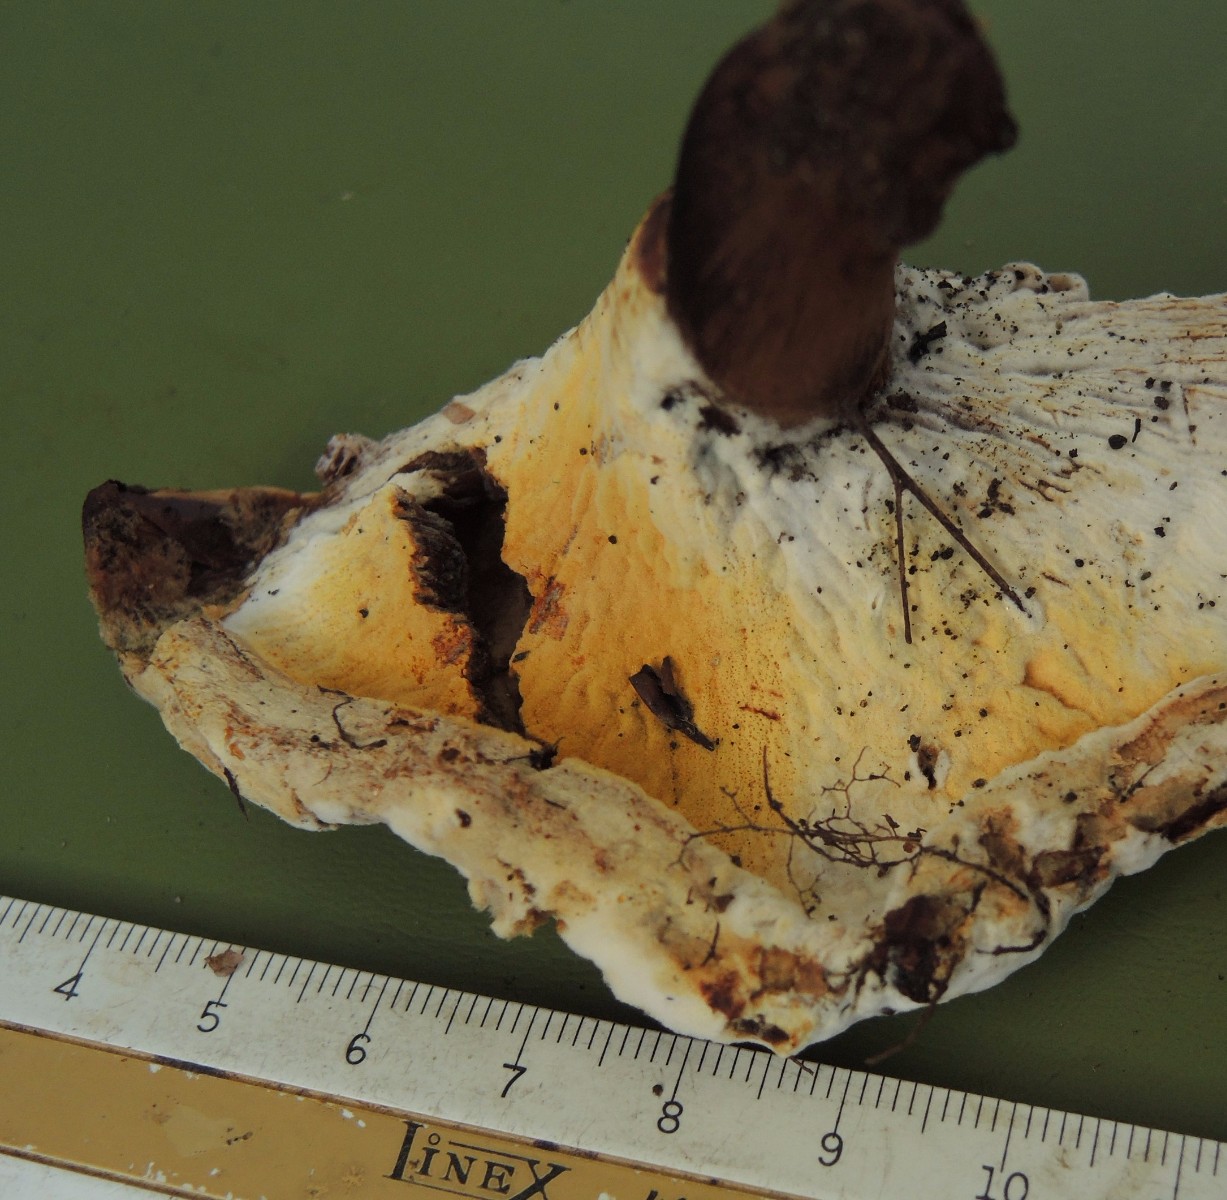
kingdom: Fungi
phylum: Ascomycota
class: Sordariomycetes
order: Hypocreales
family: Hypocreaceae
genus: Hypomyces
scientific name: Hypomyces chrysospermus
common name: gulskimmel-snylteskorpe
